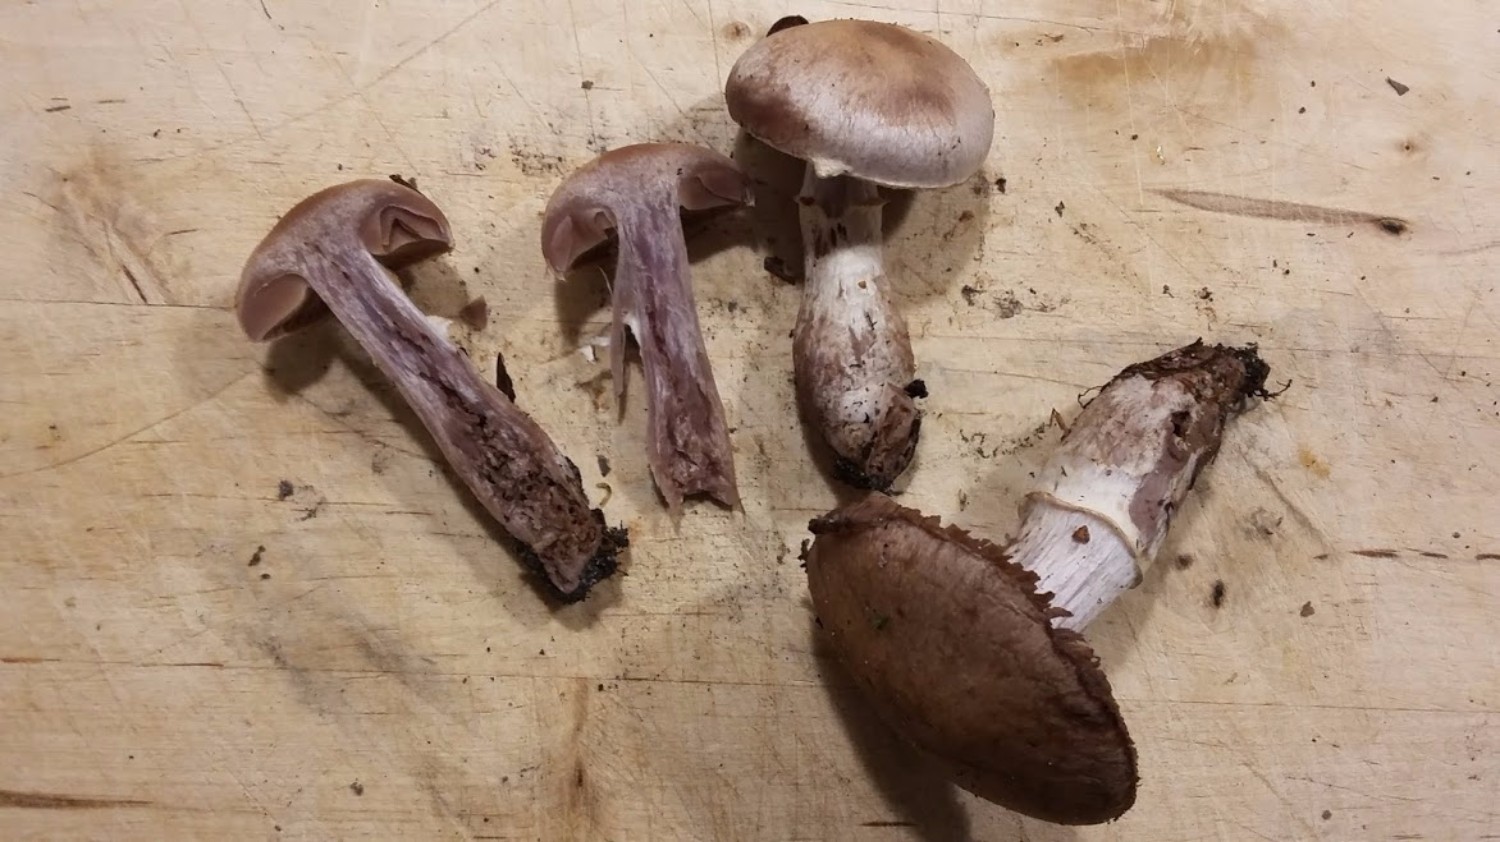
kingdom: Fungi
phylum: Basidiomycota
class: Agaricomycetes
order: Agaricales
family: Cortinariaceae
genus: Cortinarius
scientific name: Cortinarius torvus
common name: champignonagtig slørhat
